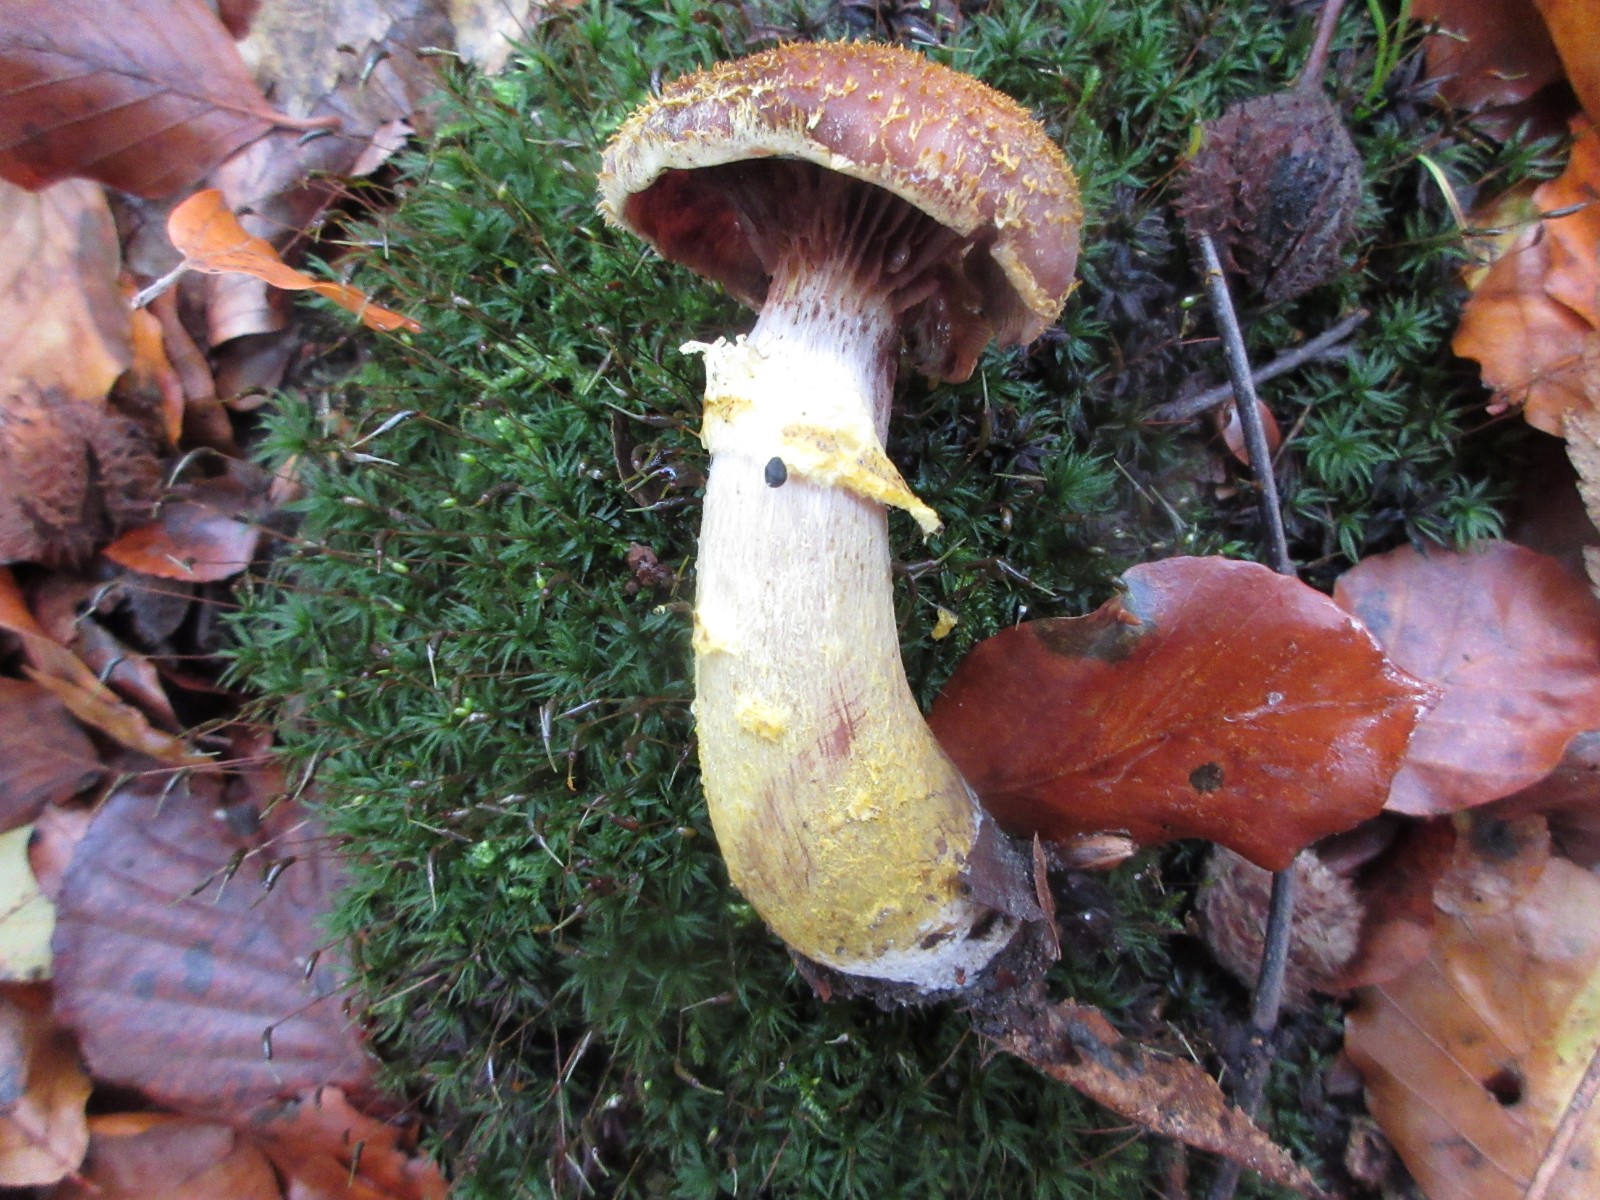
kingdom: Fungi
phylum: Basidiomycota
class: Agaricomycetes
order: Agaricales
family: Physalacriaceae
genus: Armillaria
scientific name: Armillaria lutea
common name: køllestokket honningsvamp
